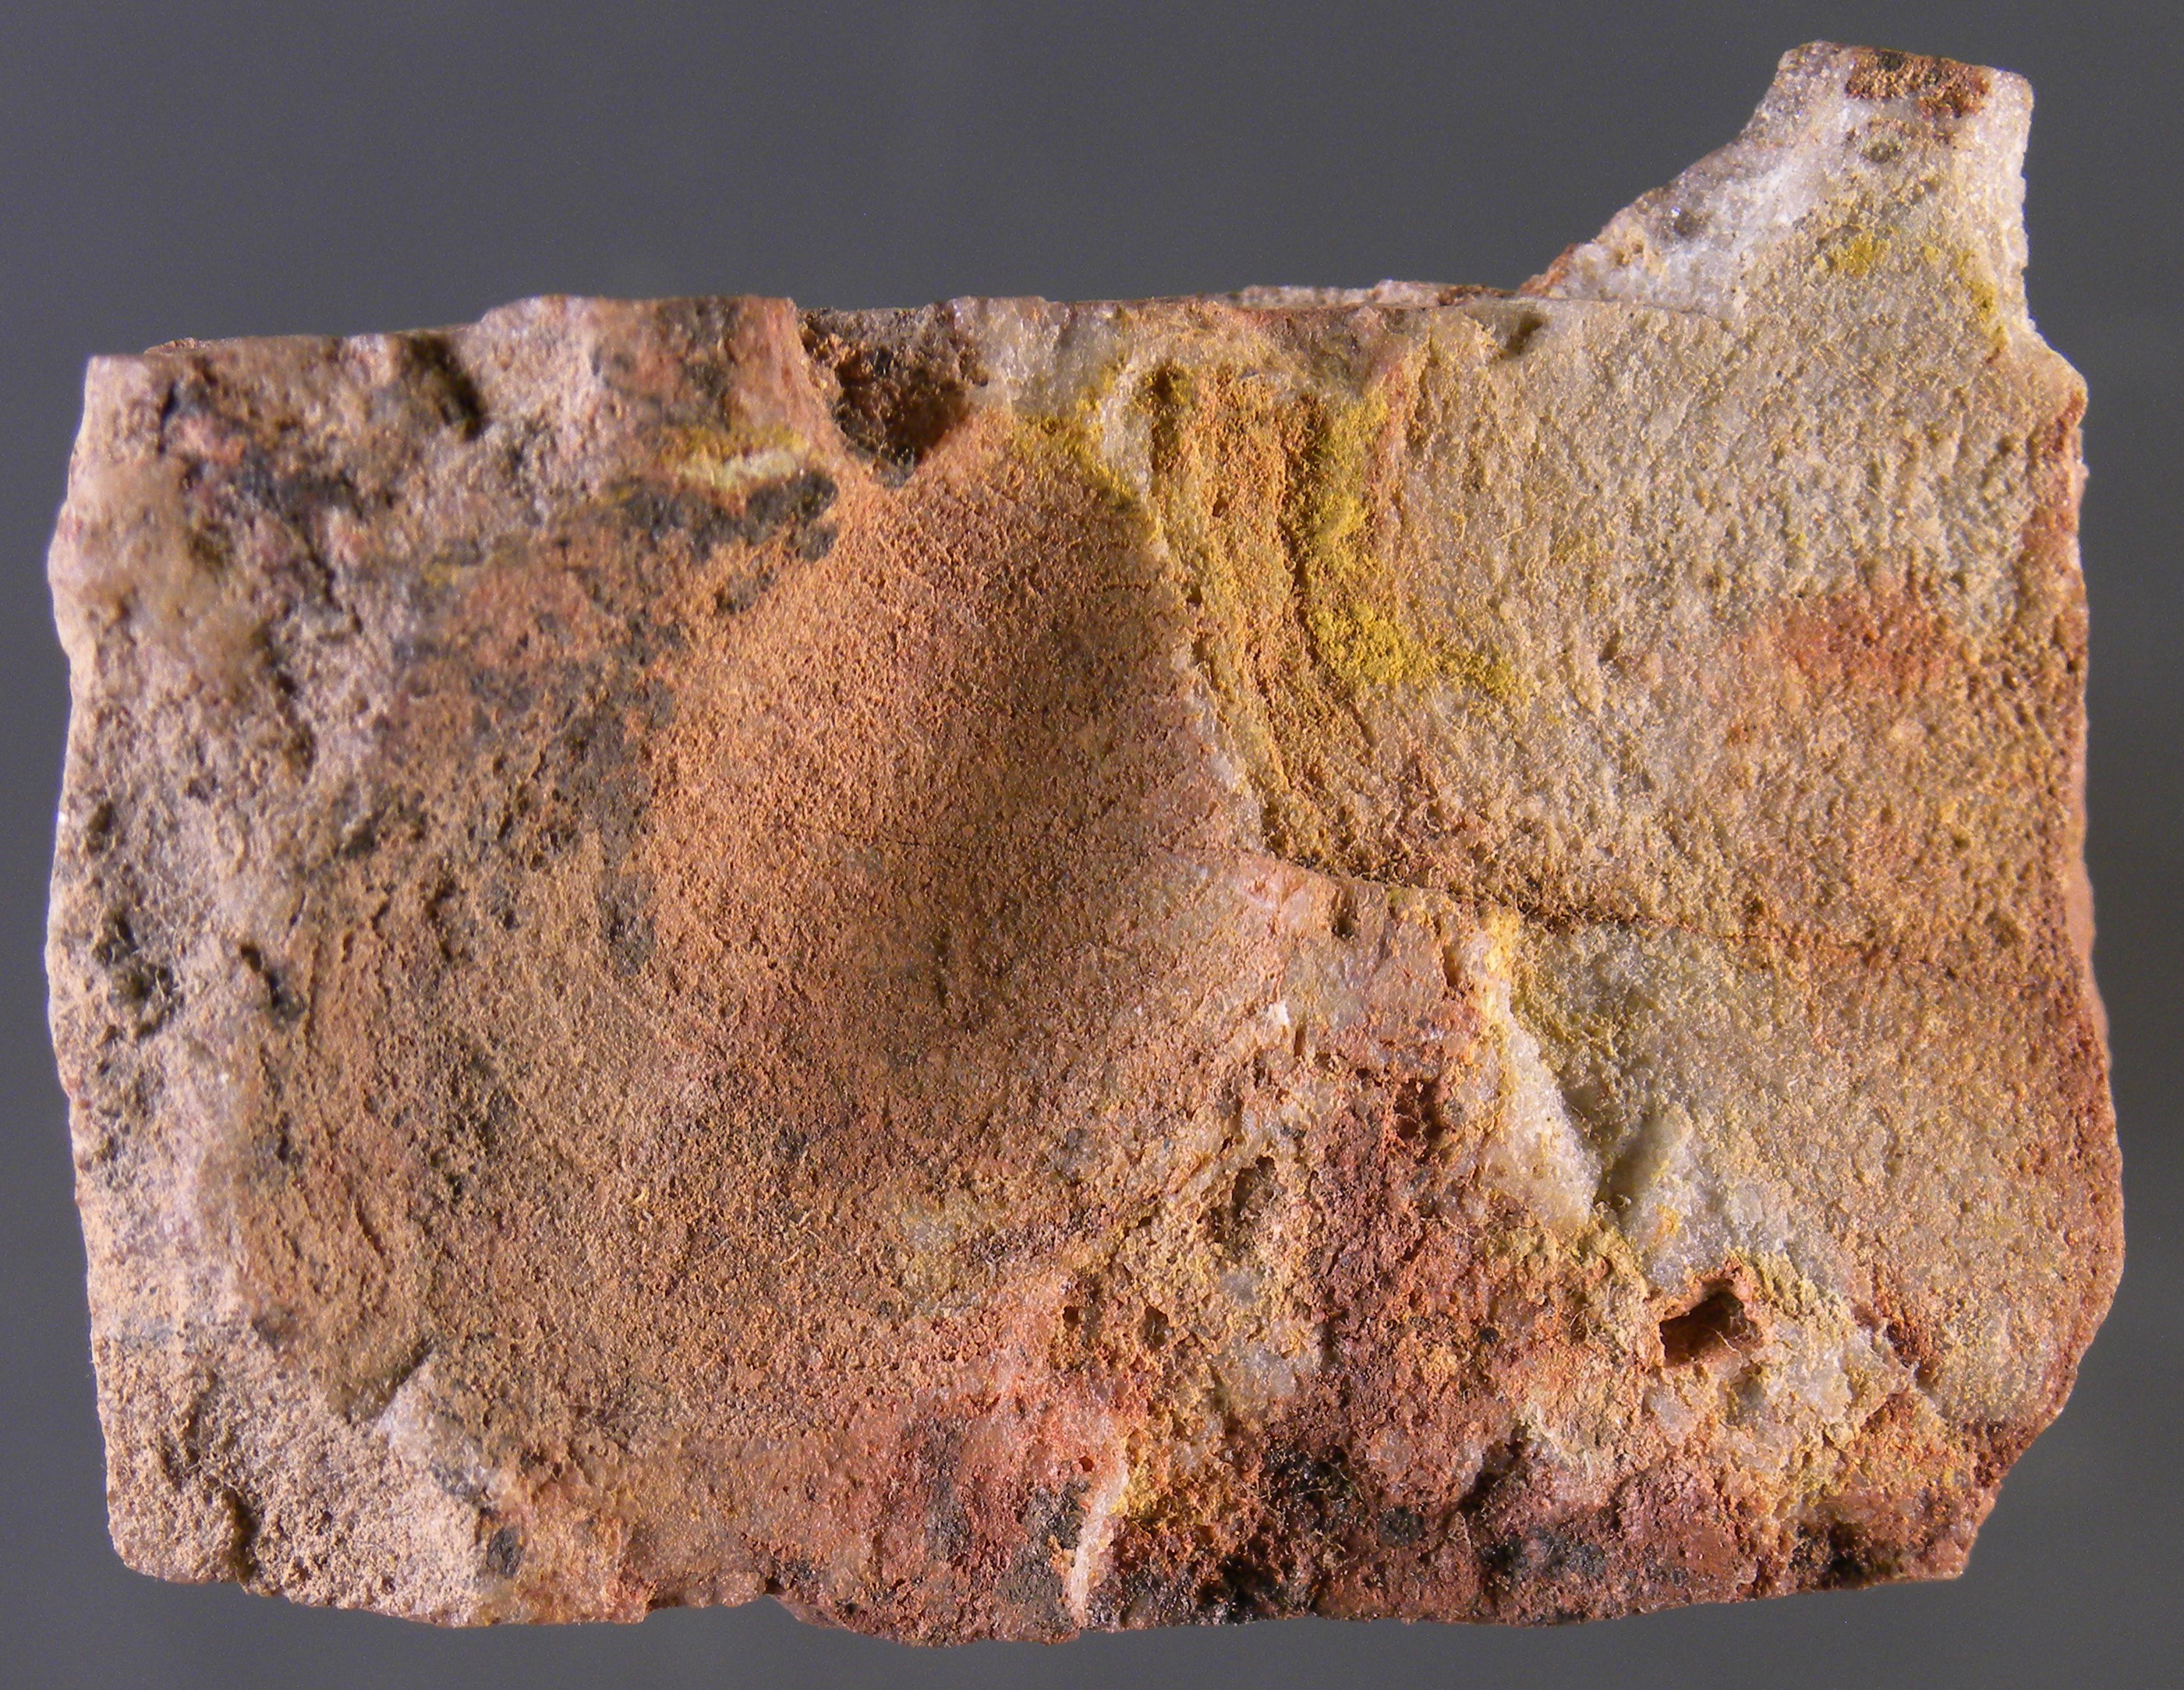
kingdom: Animalia
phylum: Mollusca
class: Bivalvia
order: Ostreida
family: Pterineidae
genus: Leptodesma
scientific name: Leptodesma
